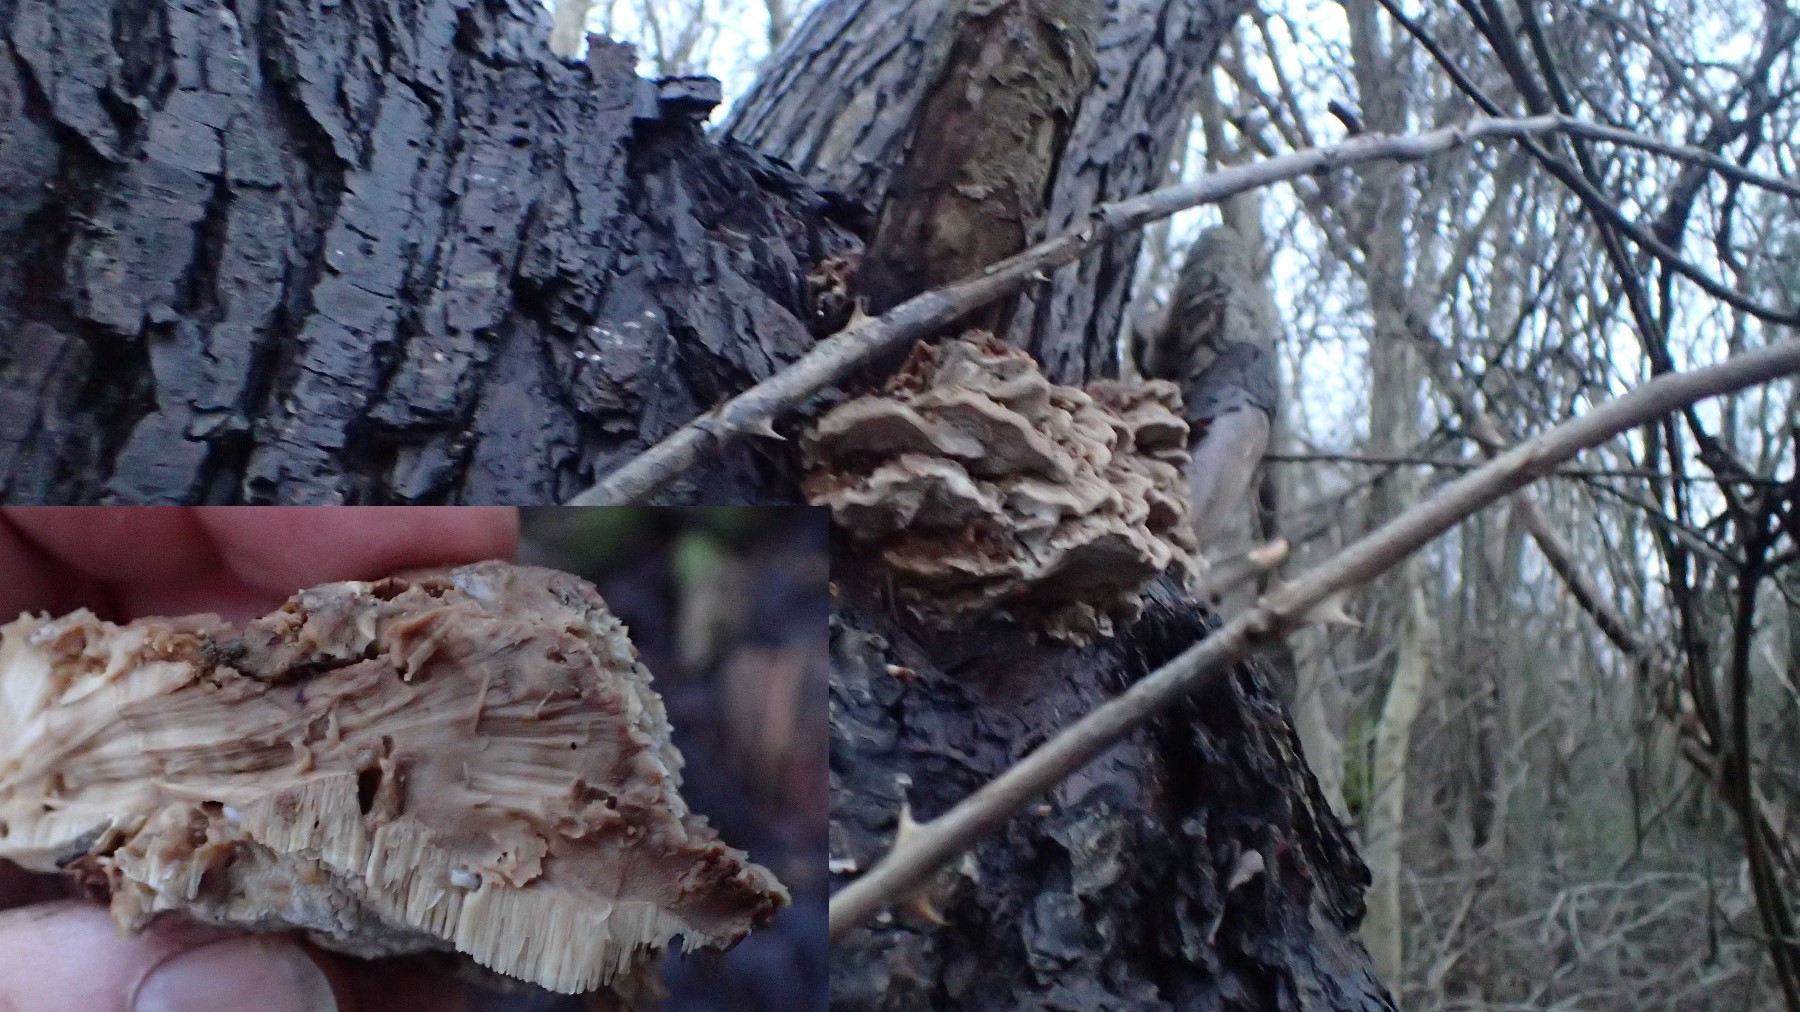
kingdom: Fungi
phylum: Basidiomycota
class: Agaricomycetes
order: Polyporales
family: Phanerochaetaceae
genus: Bjerkandera
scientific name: Bjerkandera fumosa
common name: grågul sodporesvamp
